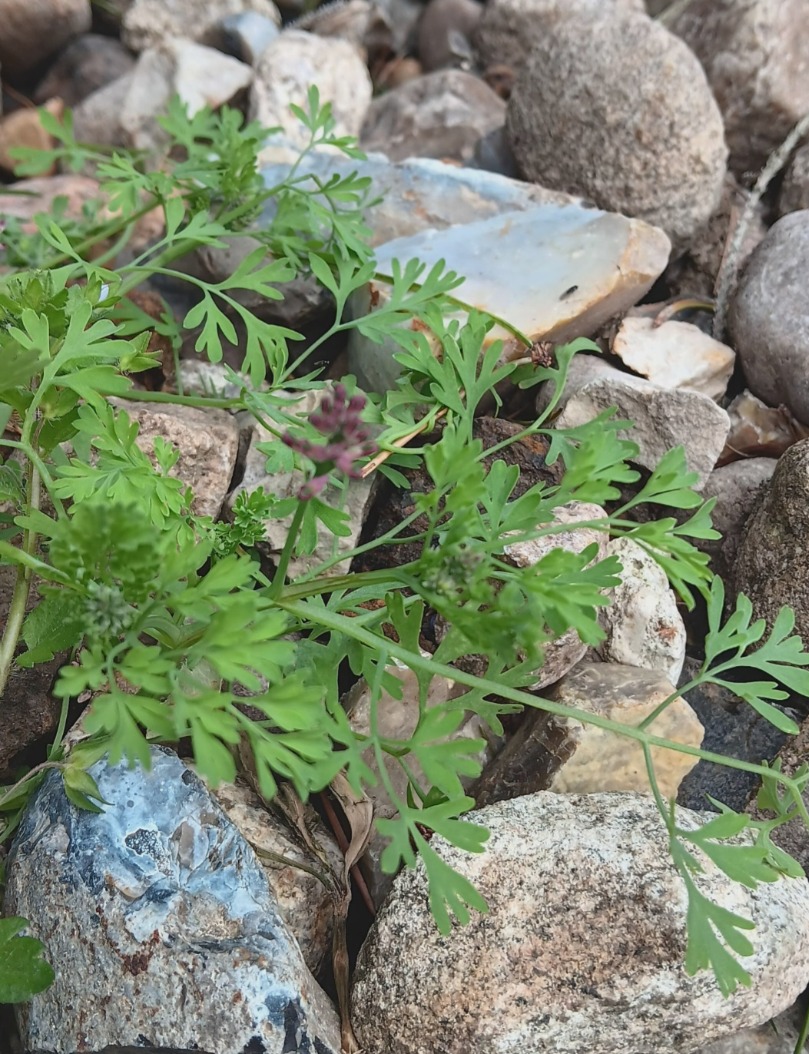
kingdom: Plantae
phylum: Tracheophyta
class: Magnoliopsida
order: Ranunculales
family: Papaveraceae
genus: Fumaria
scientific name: Fumaria officinalis
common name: Læge-jordrøg
